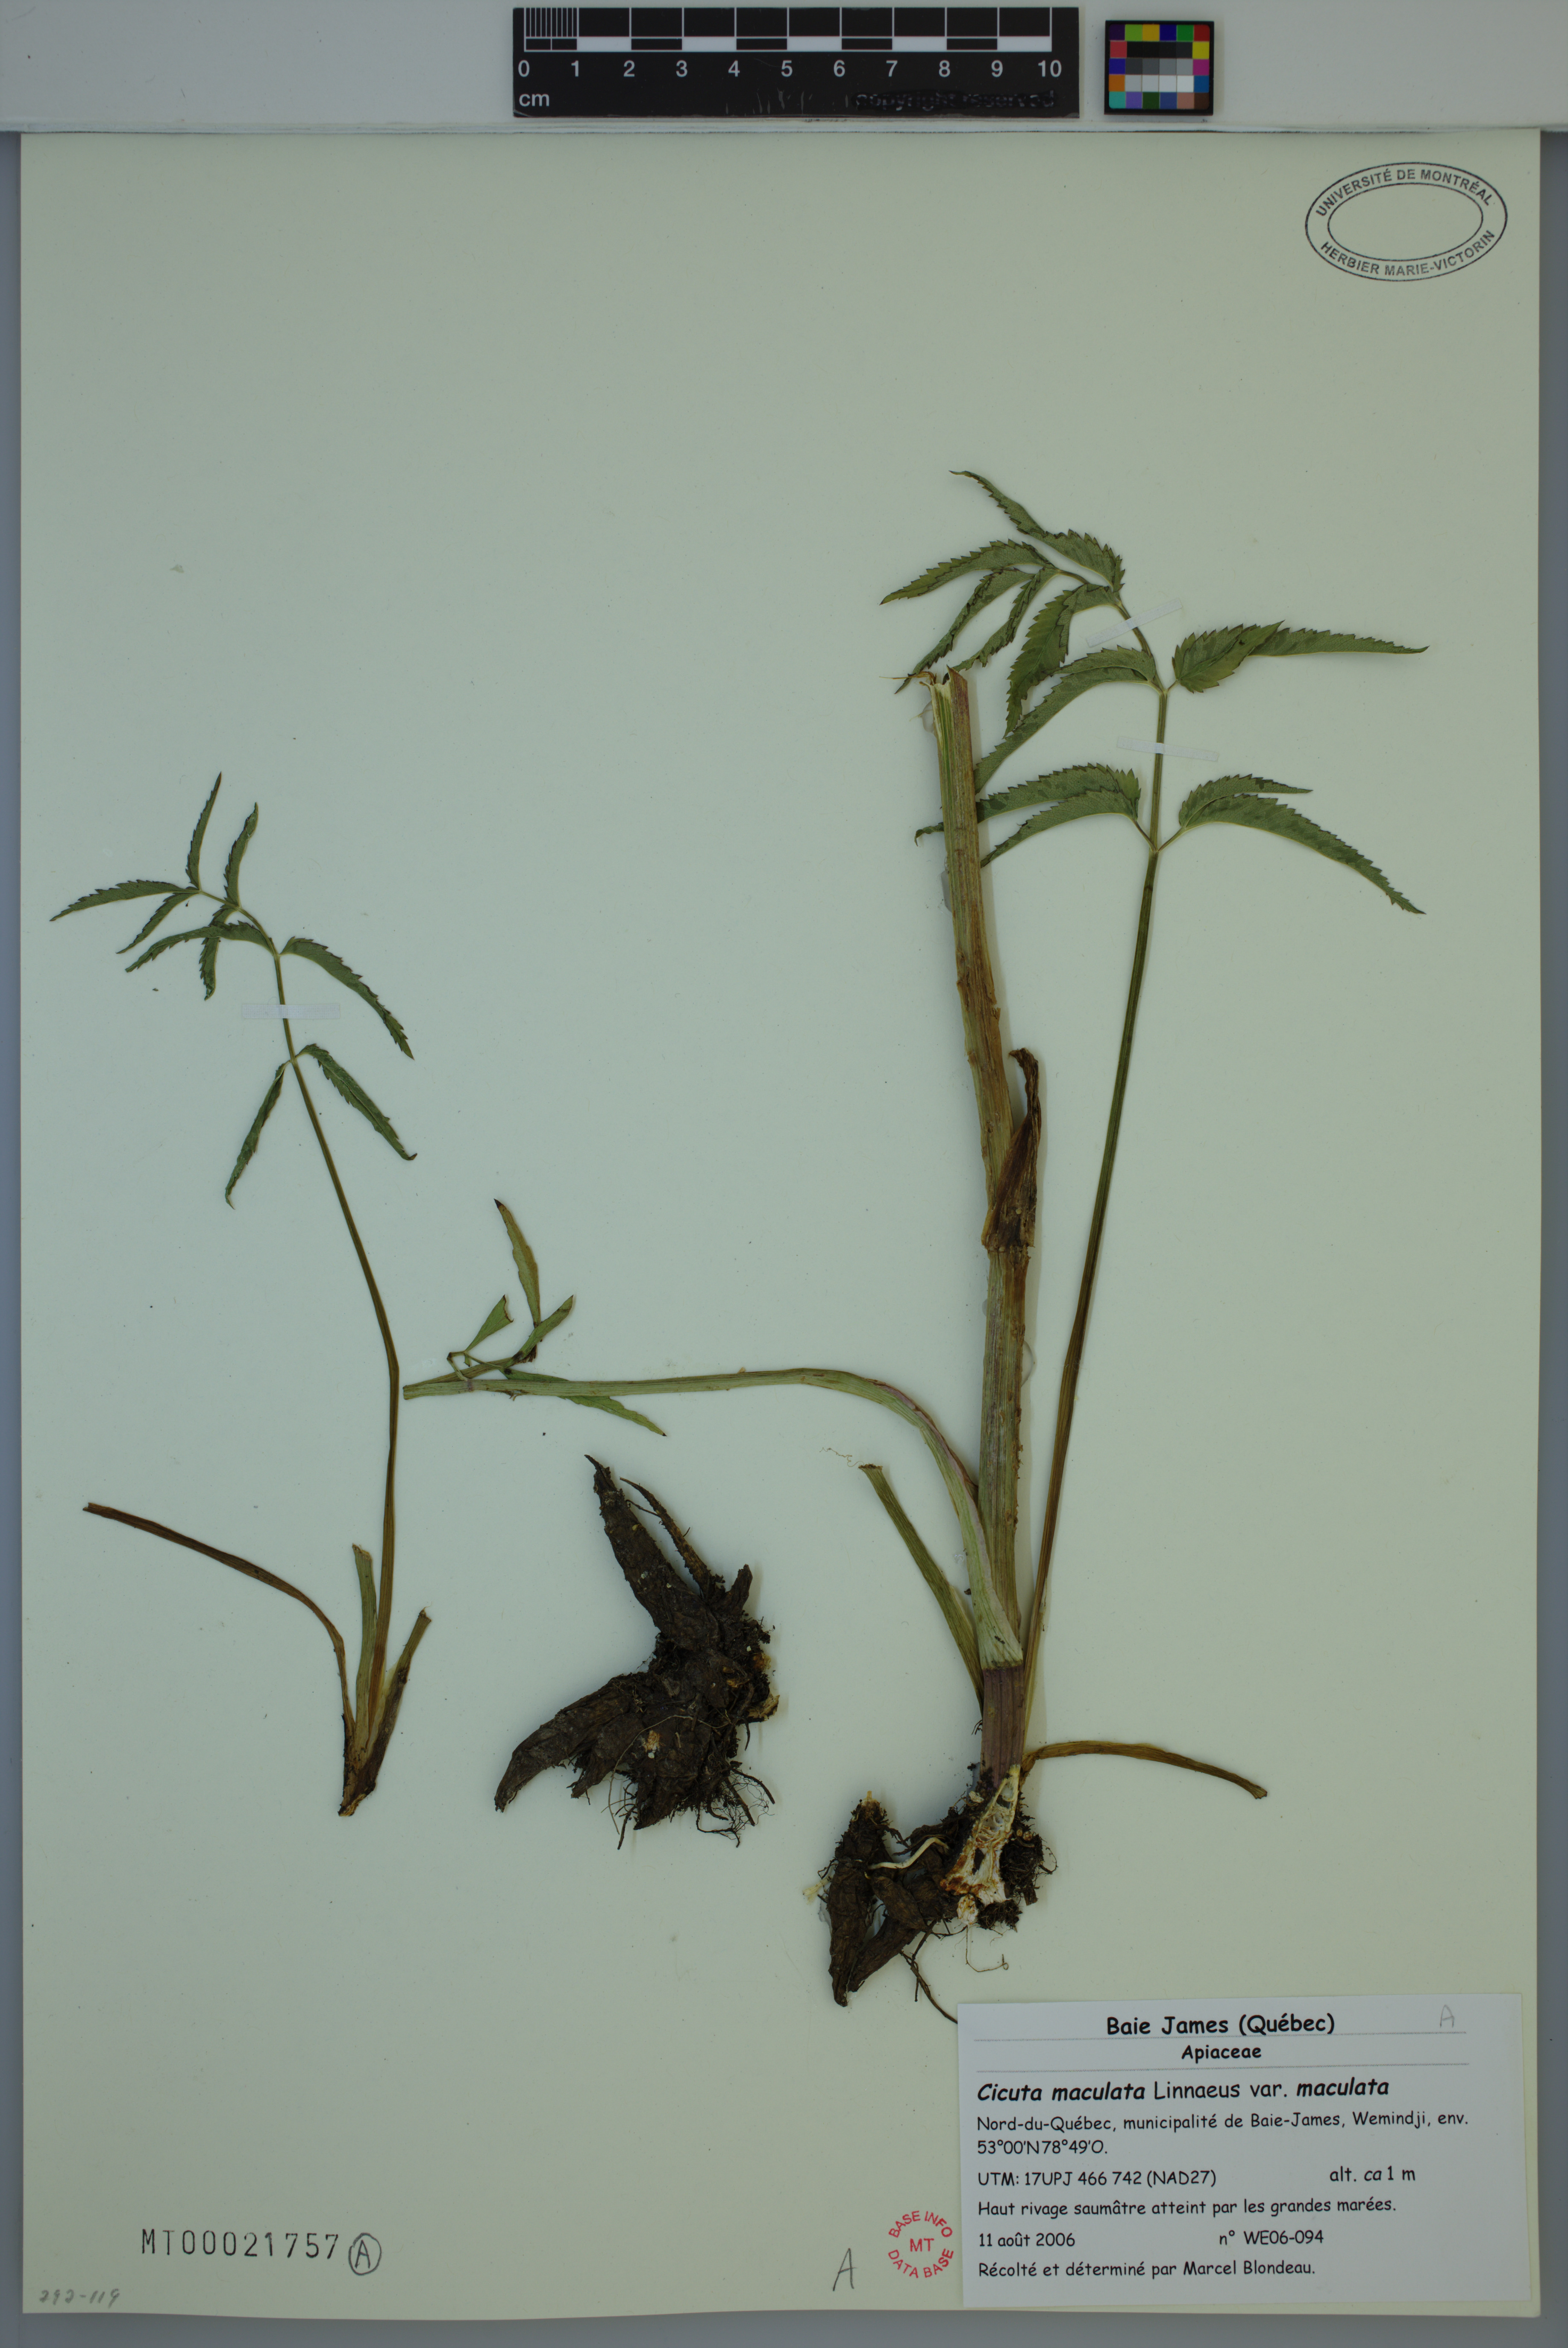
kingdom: Plantae
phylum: Tracheophyta
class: Magnoliopsida
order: Apiales
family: Apiaceae
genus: Cicuta
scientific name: Cicuta maculata
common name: Spotted cowbane
